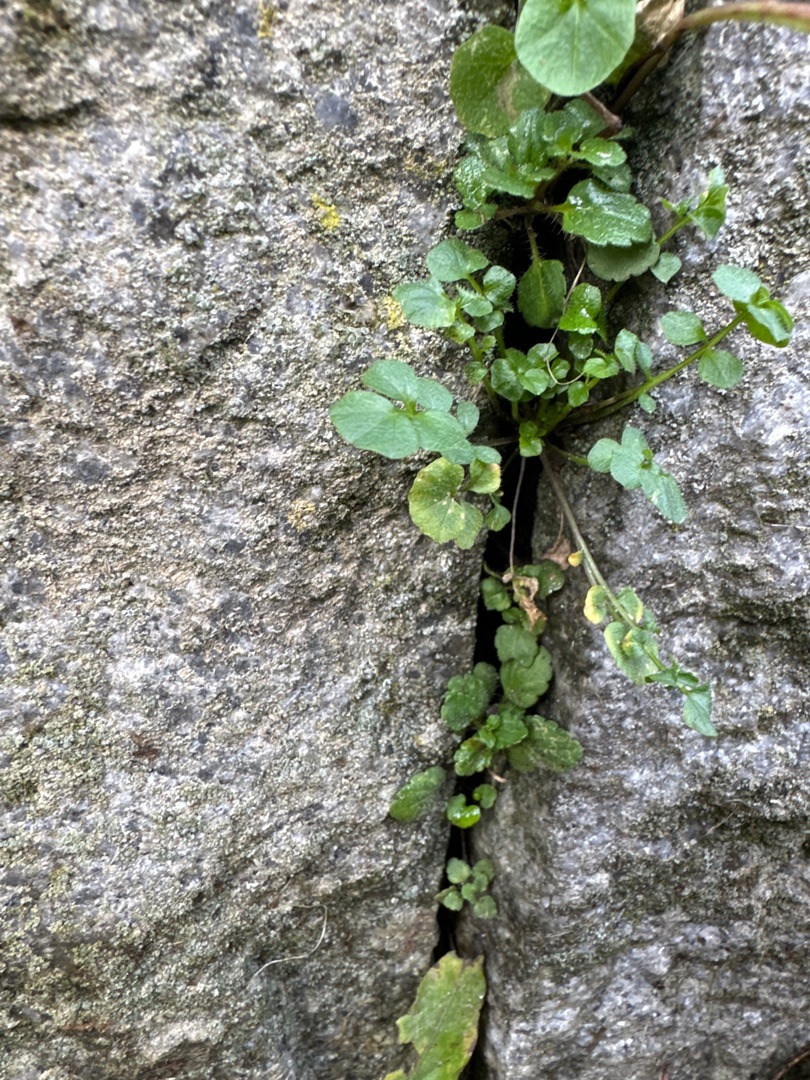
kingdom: Plantae
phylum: Tracheophyta
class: Magnoliopsida
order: Brassicales
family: Brassicaceae
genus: Cardamine
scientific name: Cardamine hirsuta
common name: Roset-springklap
